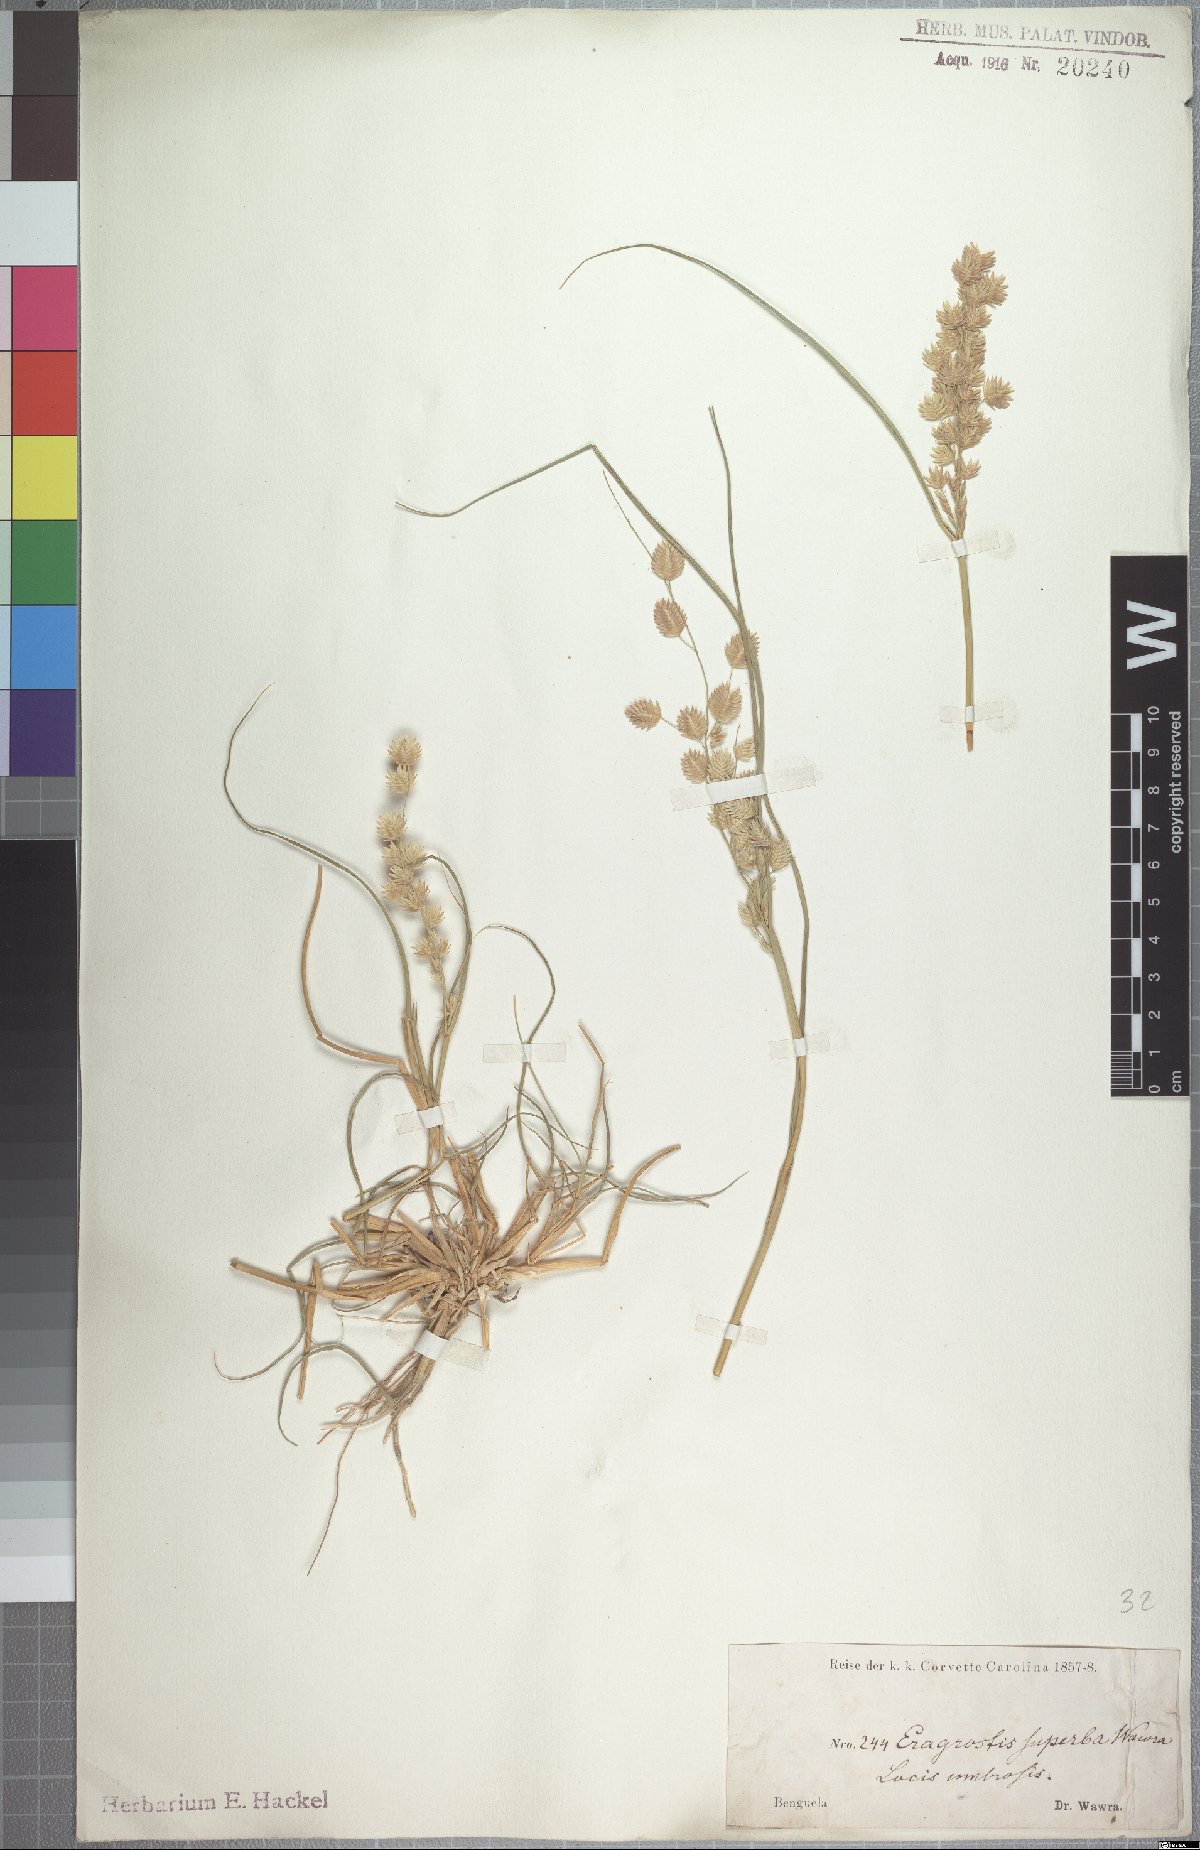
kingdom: Plantae
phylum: Tracheophyta
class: Liliopsida
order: Poales
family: Poaceae
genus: Eragrostis
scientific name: Eragrostis superba
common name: Wilman lovegrass
